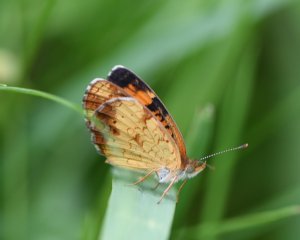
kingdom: Animalia
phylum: Arthropoda
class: Insecta
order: Lepidoptera
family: Nymphalidae
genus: Phyciodes
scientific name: Phyciodes tharos
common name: Northern Crescent
